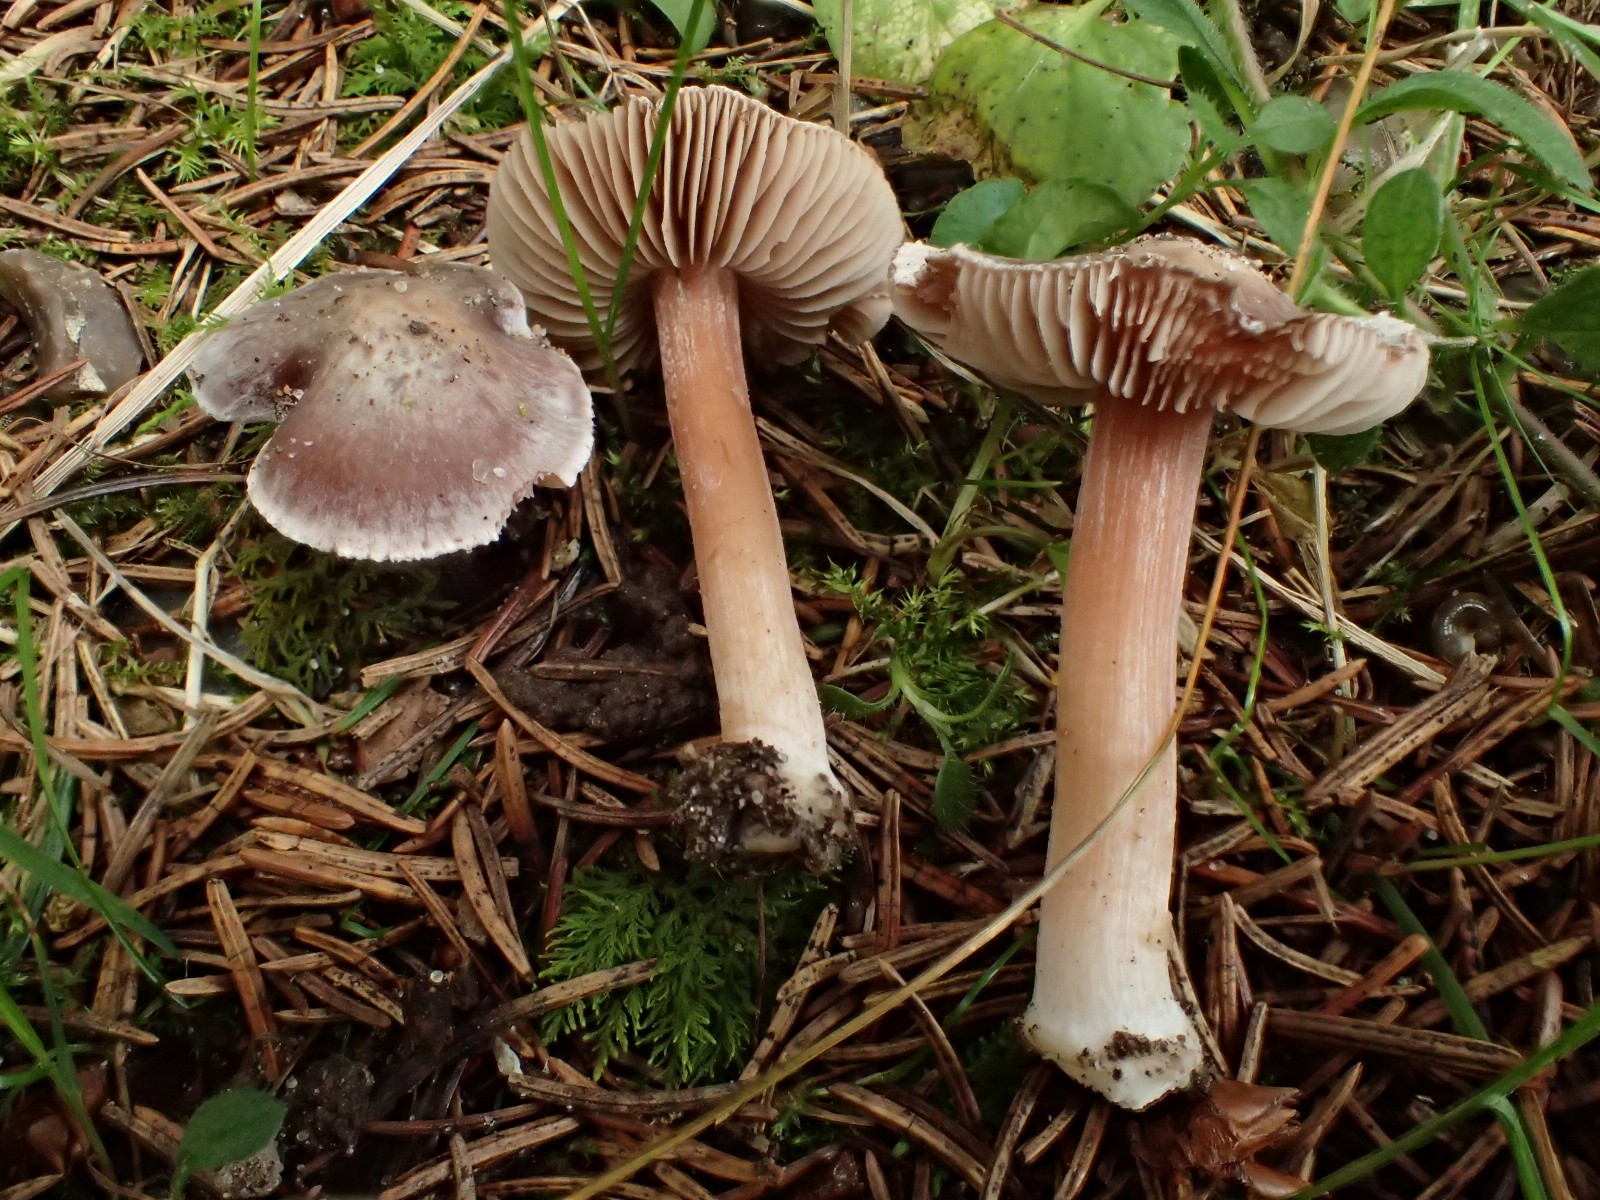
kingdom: Fungi
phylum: Basidiomycota
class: Agaricomycetes
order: Agaricales
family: Inocybaceae
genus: Inocybe
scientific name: Inocybe grammatoides
